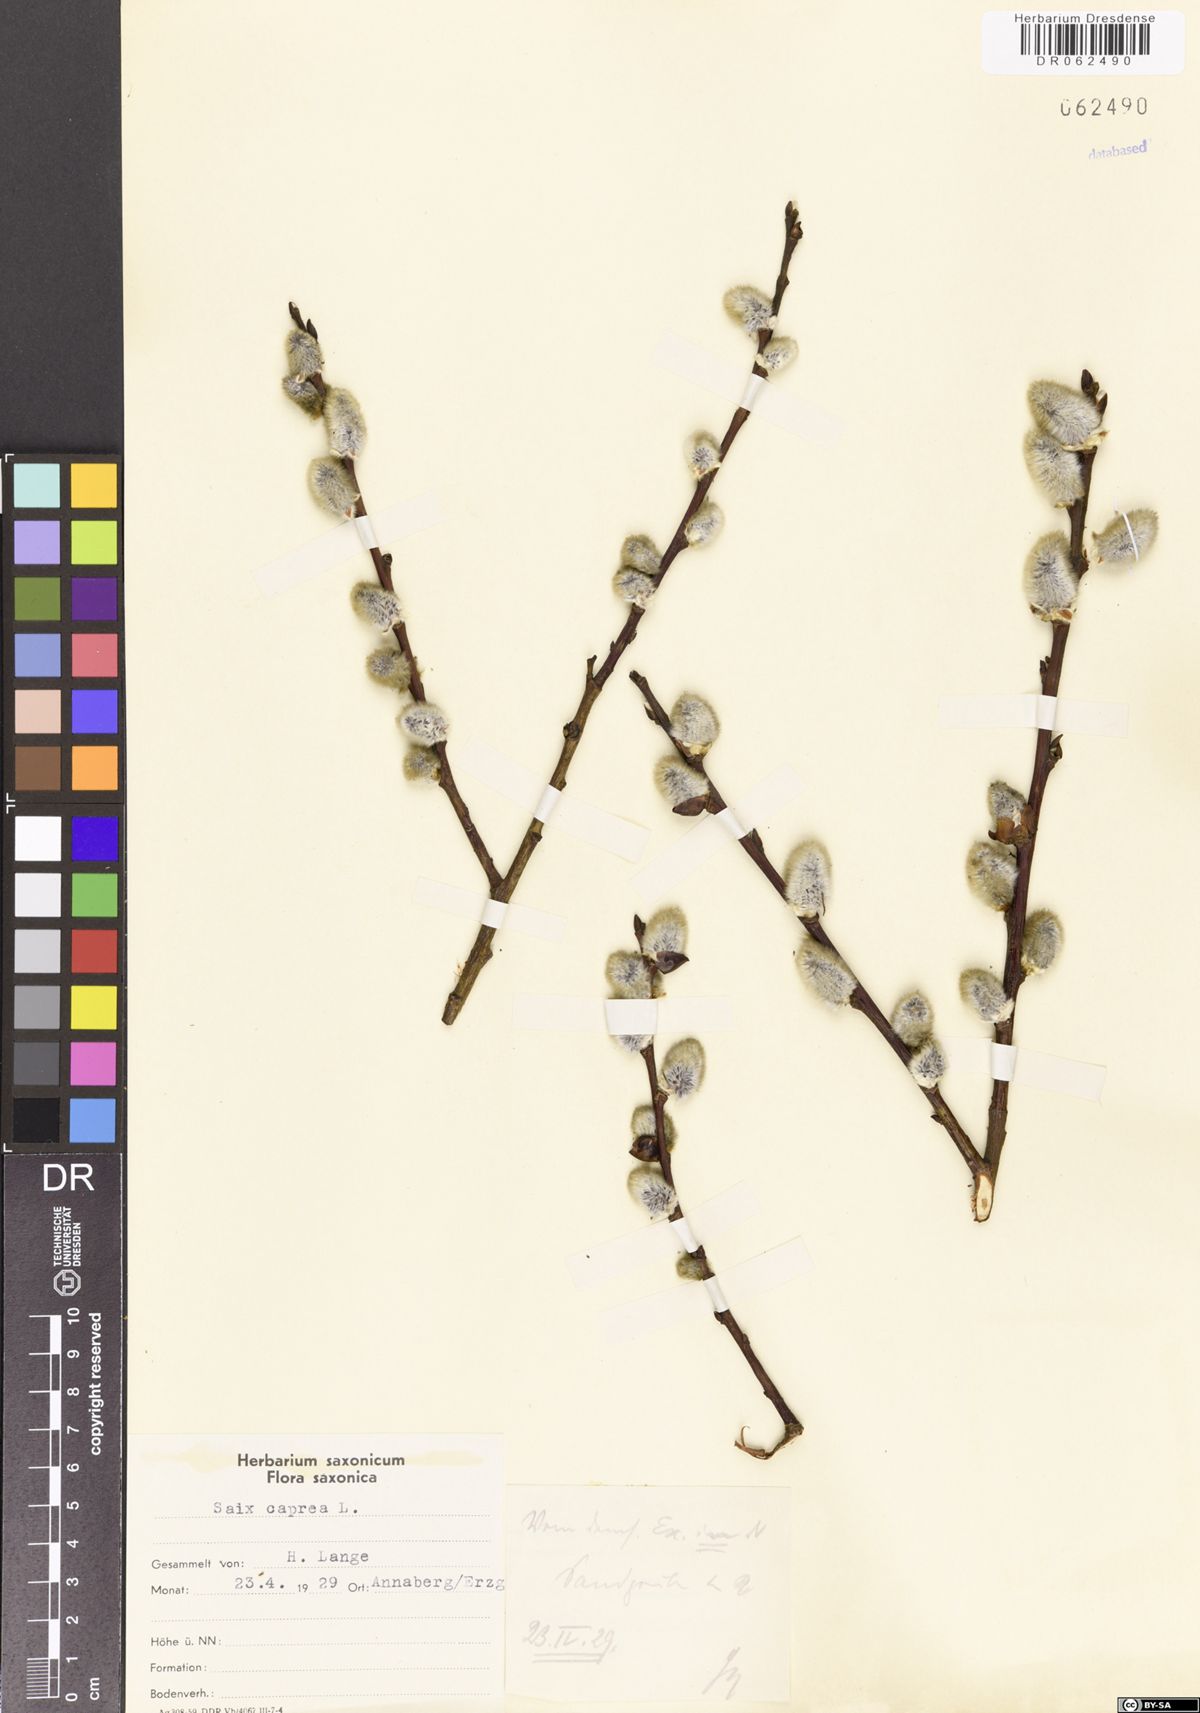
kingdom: Plantae
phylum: Tracheophyta
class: Magnoliopsida
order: Malpighiales
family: Salicaceae
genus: Salix
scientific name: Salix caprea
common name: Goat willow
